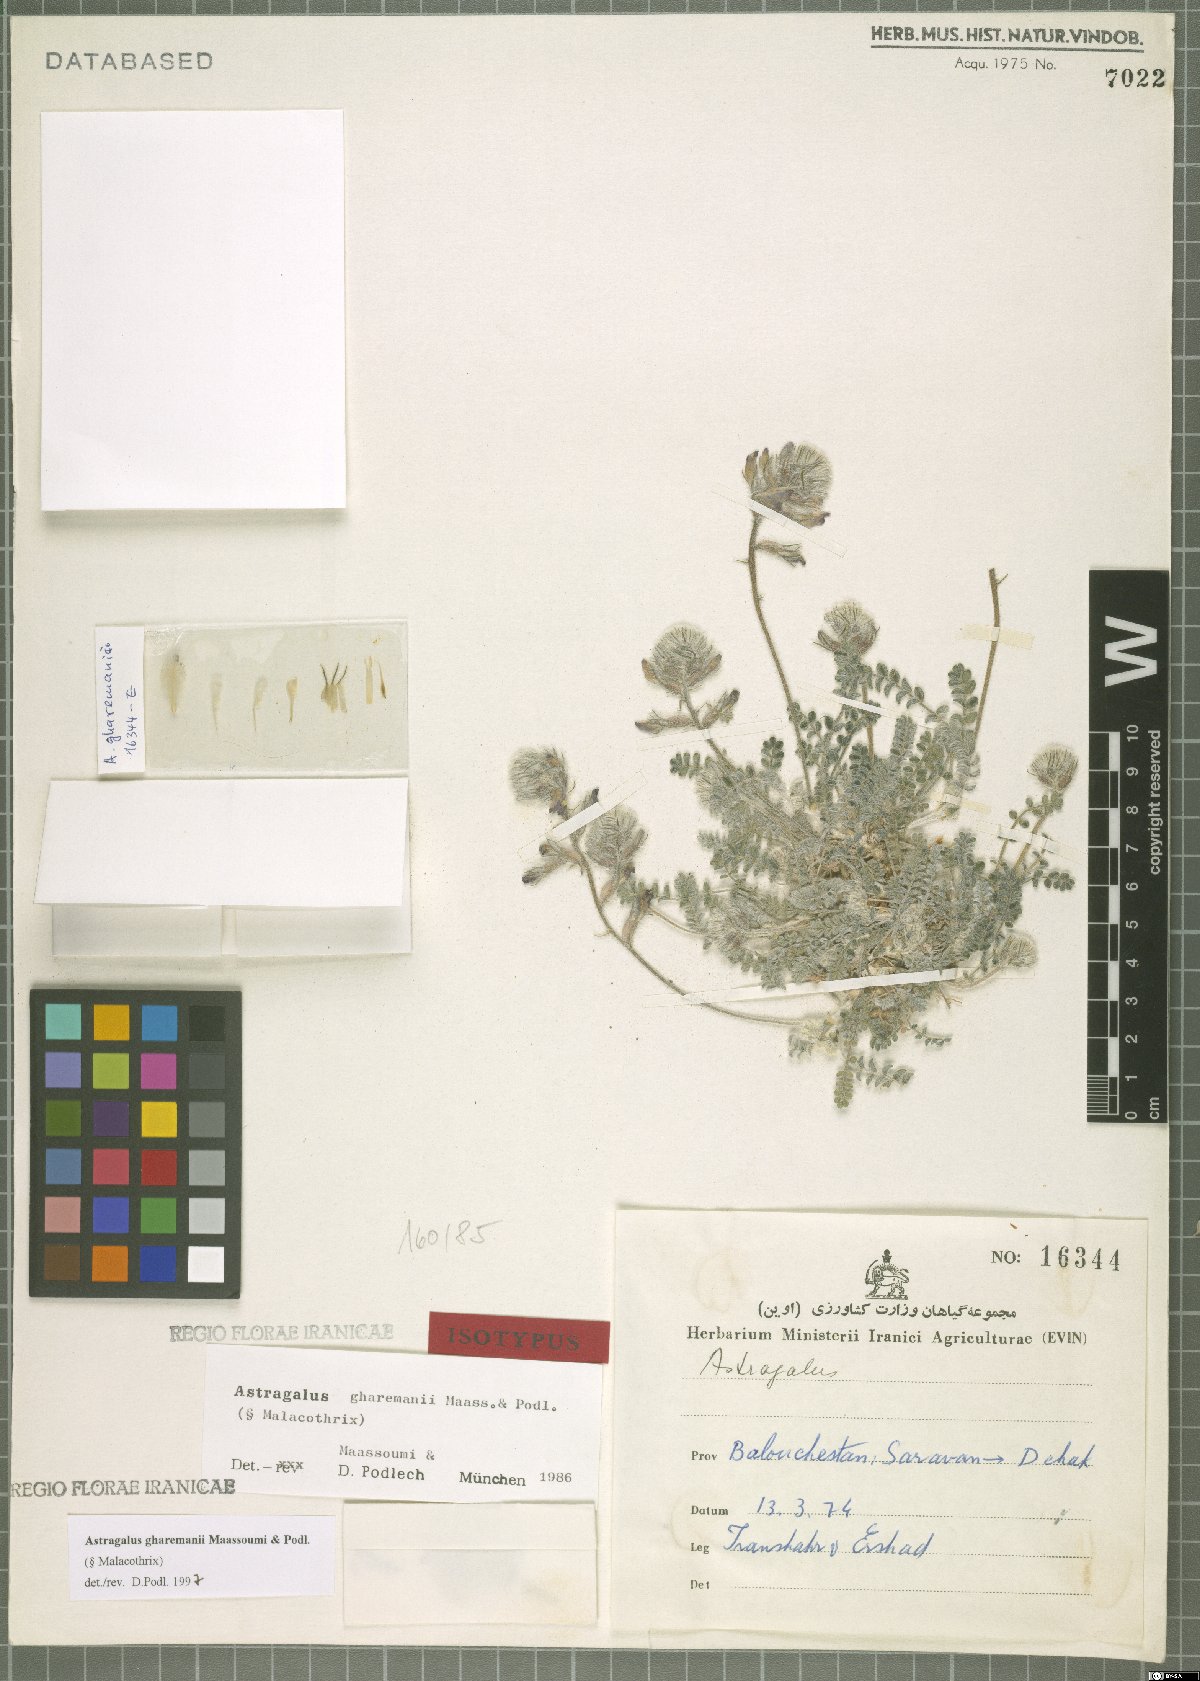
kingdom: Plantae
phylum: Tracheophyta
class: Magnoliopsida
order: Fabales
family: Fabaceae
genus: Astragalus
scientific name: Astragalus ghahremanii
